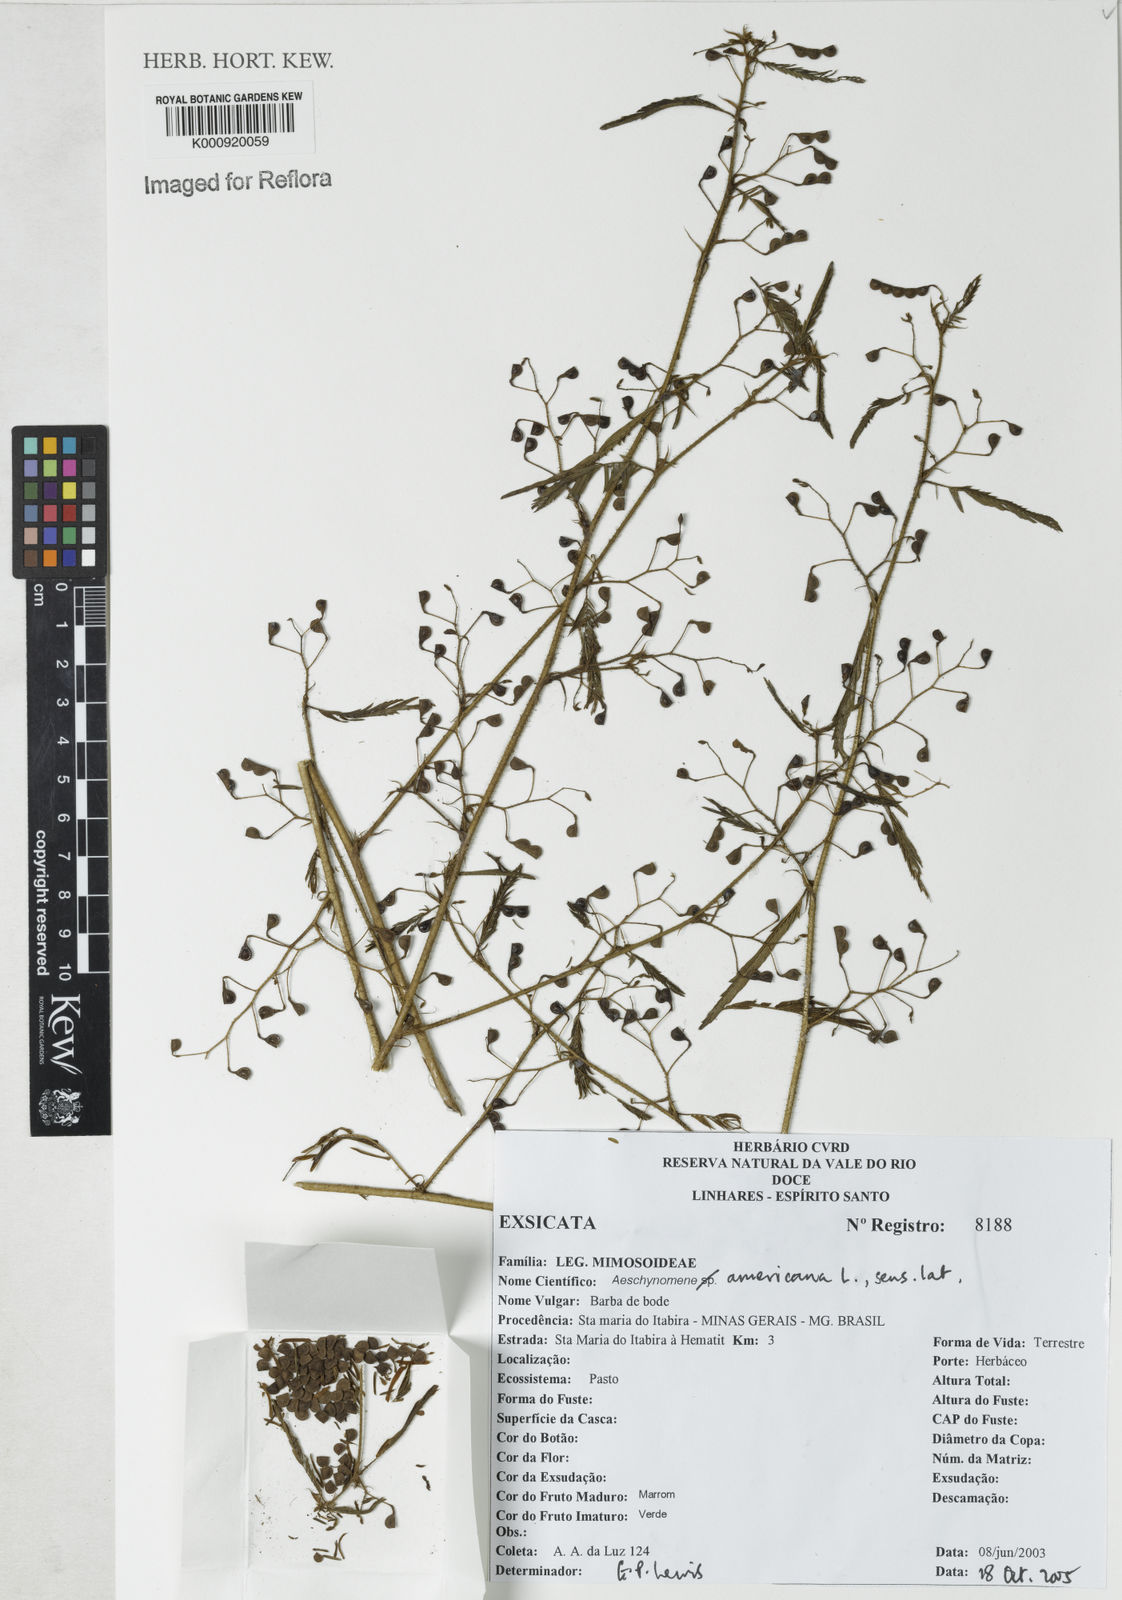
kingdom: Plantae
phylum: Tracheophyta
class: Magnoliopsida
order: Fabales
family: Fabaceae
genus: Aeschynomene
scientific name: Aeschynomene americana
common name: Joint-vetch
